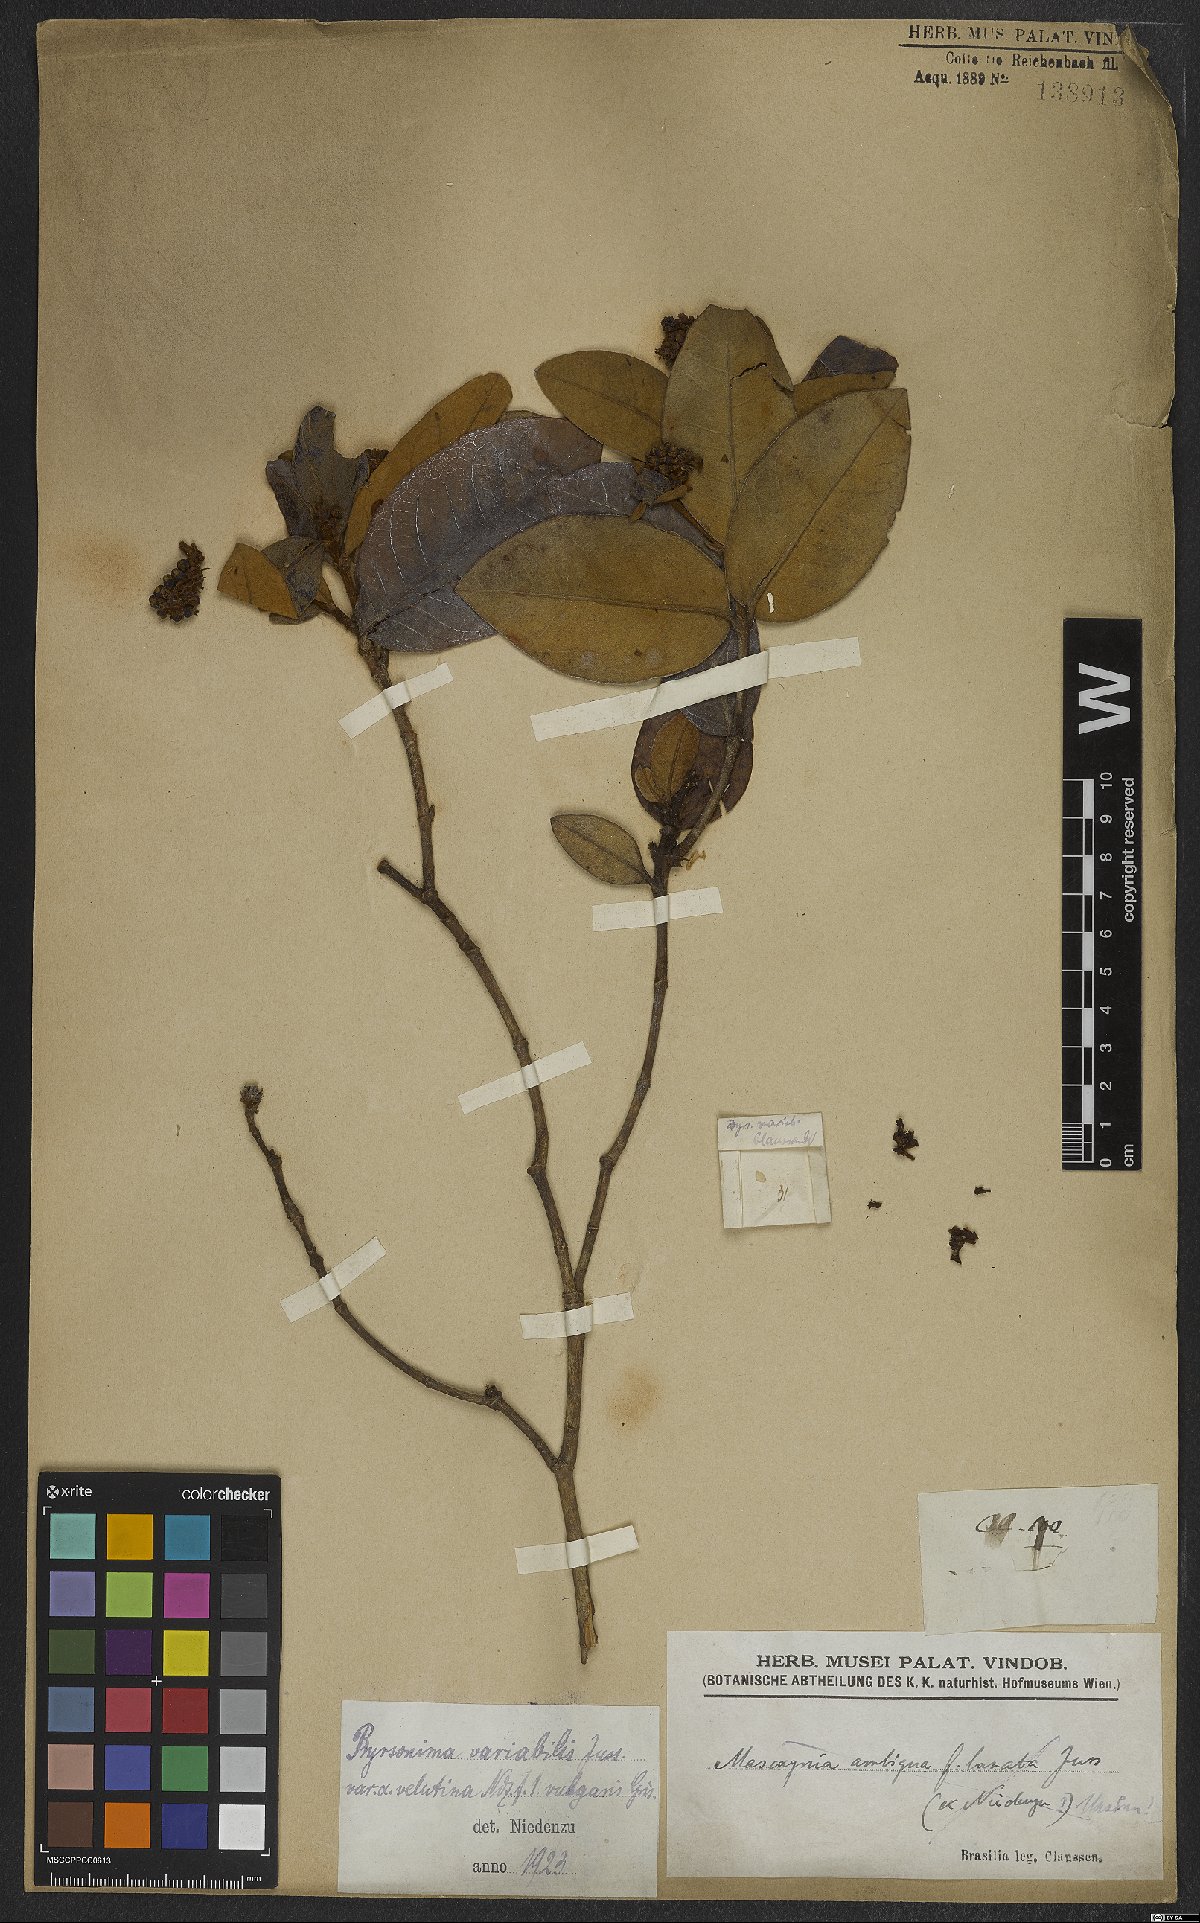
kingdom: Plantae
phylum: Tracheophyta
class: Magnoliopsida
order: Malpighiales
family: Malpighiaceae
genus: Byrsonima
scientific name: Byrsonima variabilis
